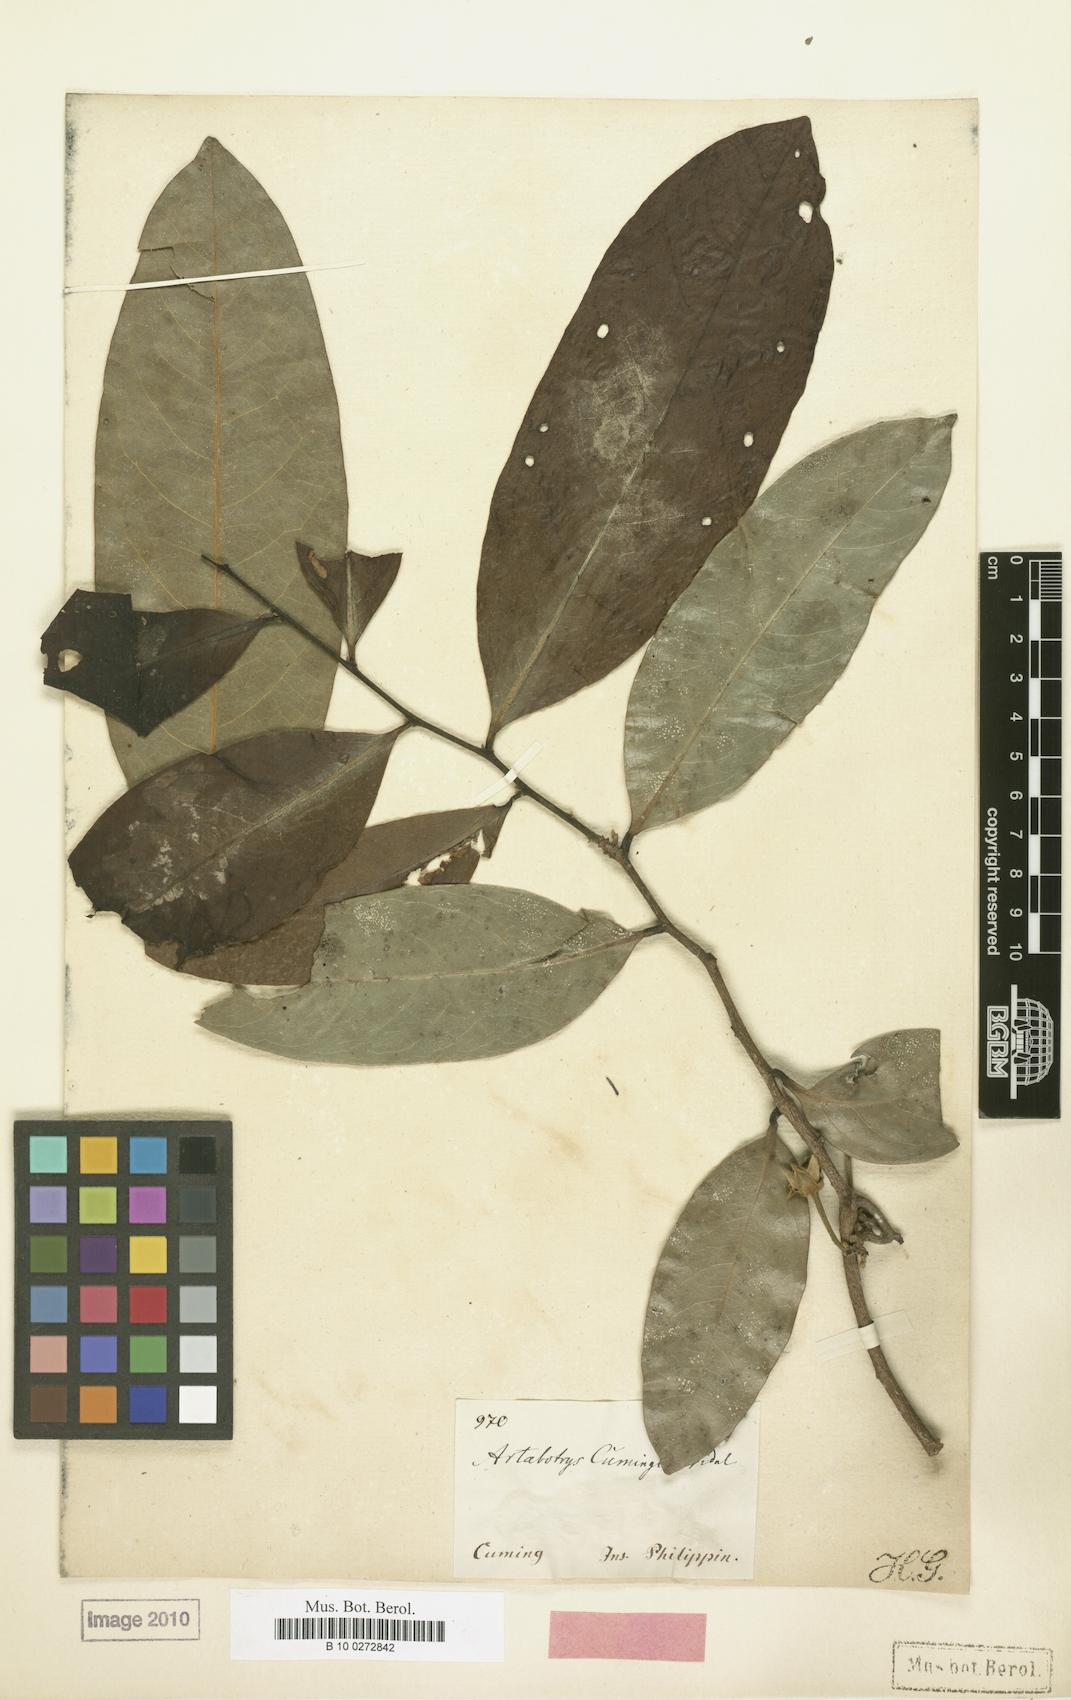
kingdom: Plantae
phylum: Tracheophyta
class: Magnoliopsida
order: Magnoliales
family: Annonaceae
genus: Artabotrys
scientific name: Artabotrys cumingianus
